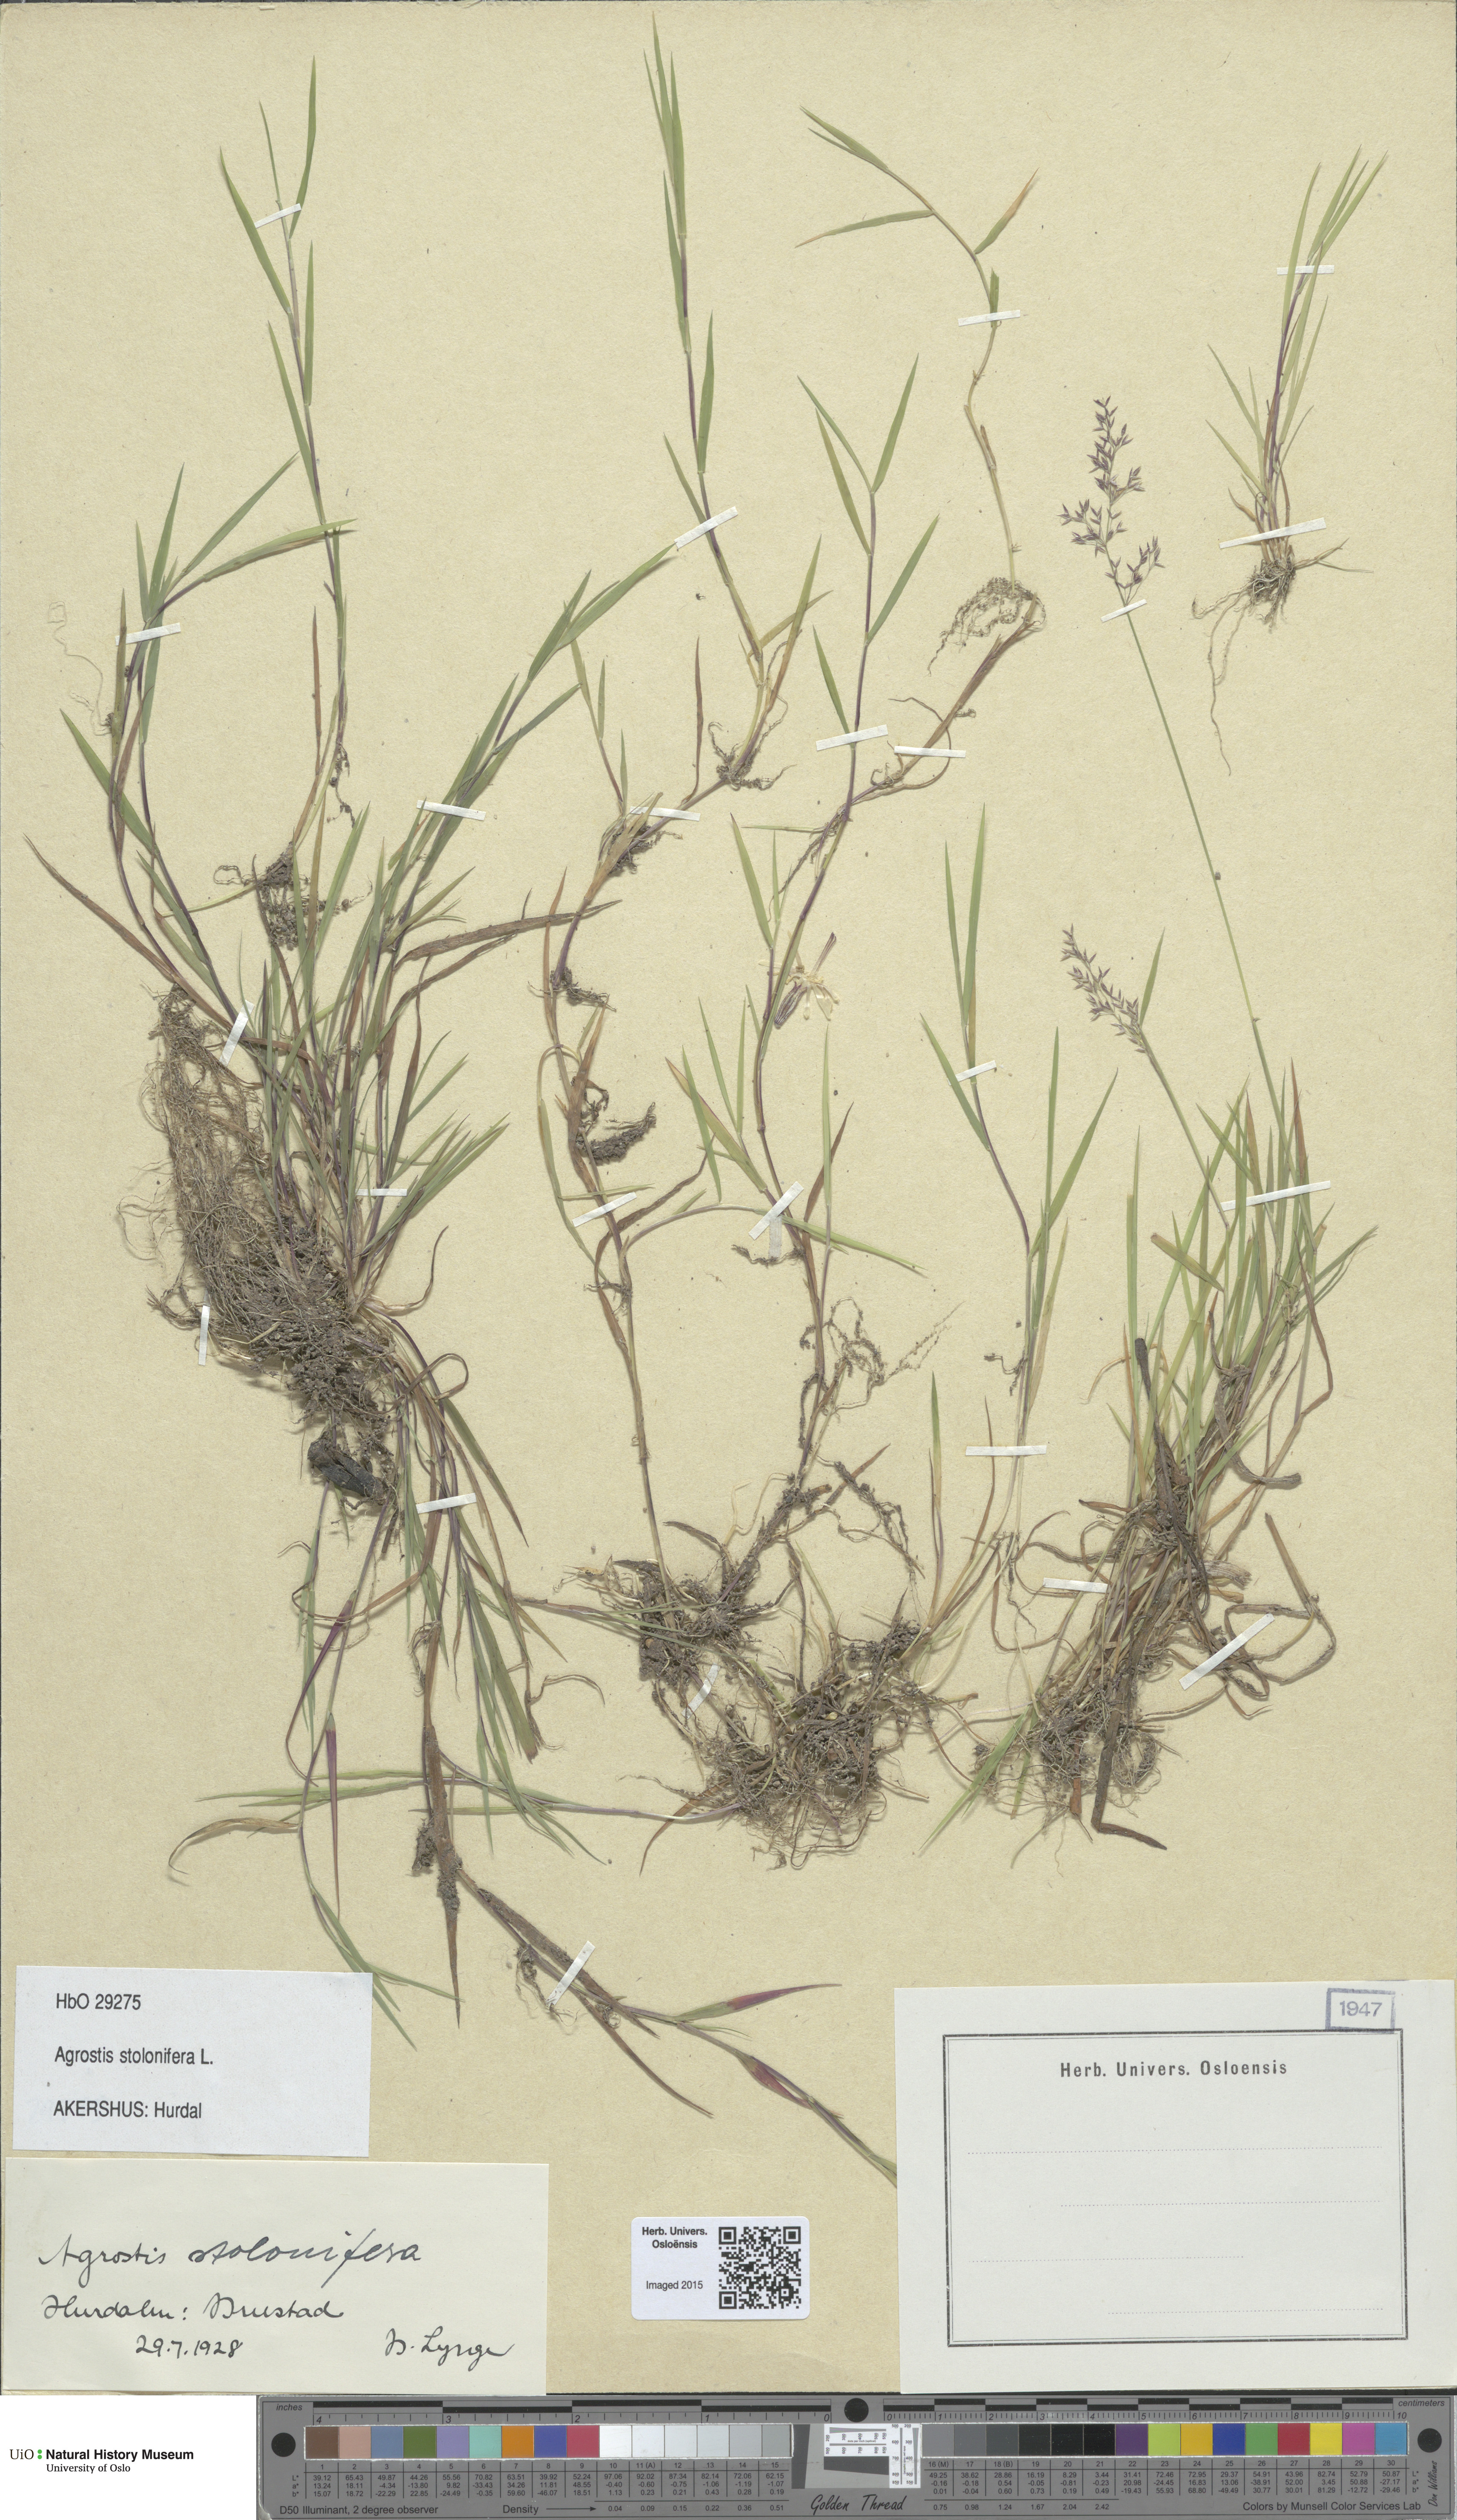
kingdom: Plantae
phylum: Tracheophyta
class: Liliopsida
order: Poales
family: Poaceae
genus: Agrostis
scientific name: Agrostis stolonifera
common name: Creeping bentgrass
